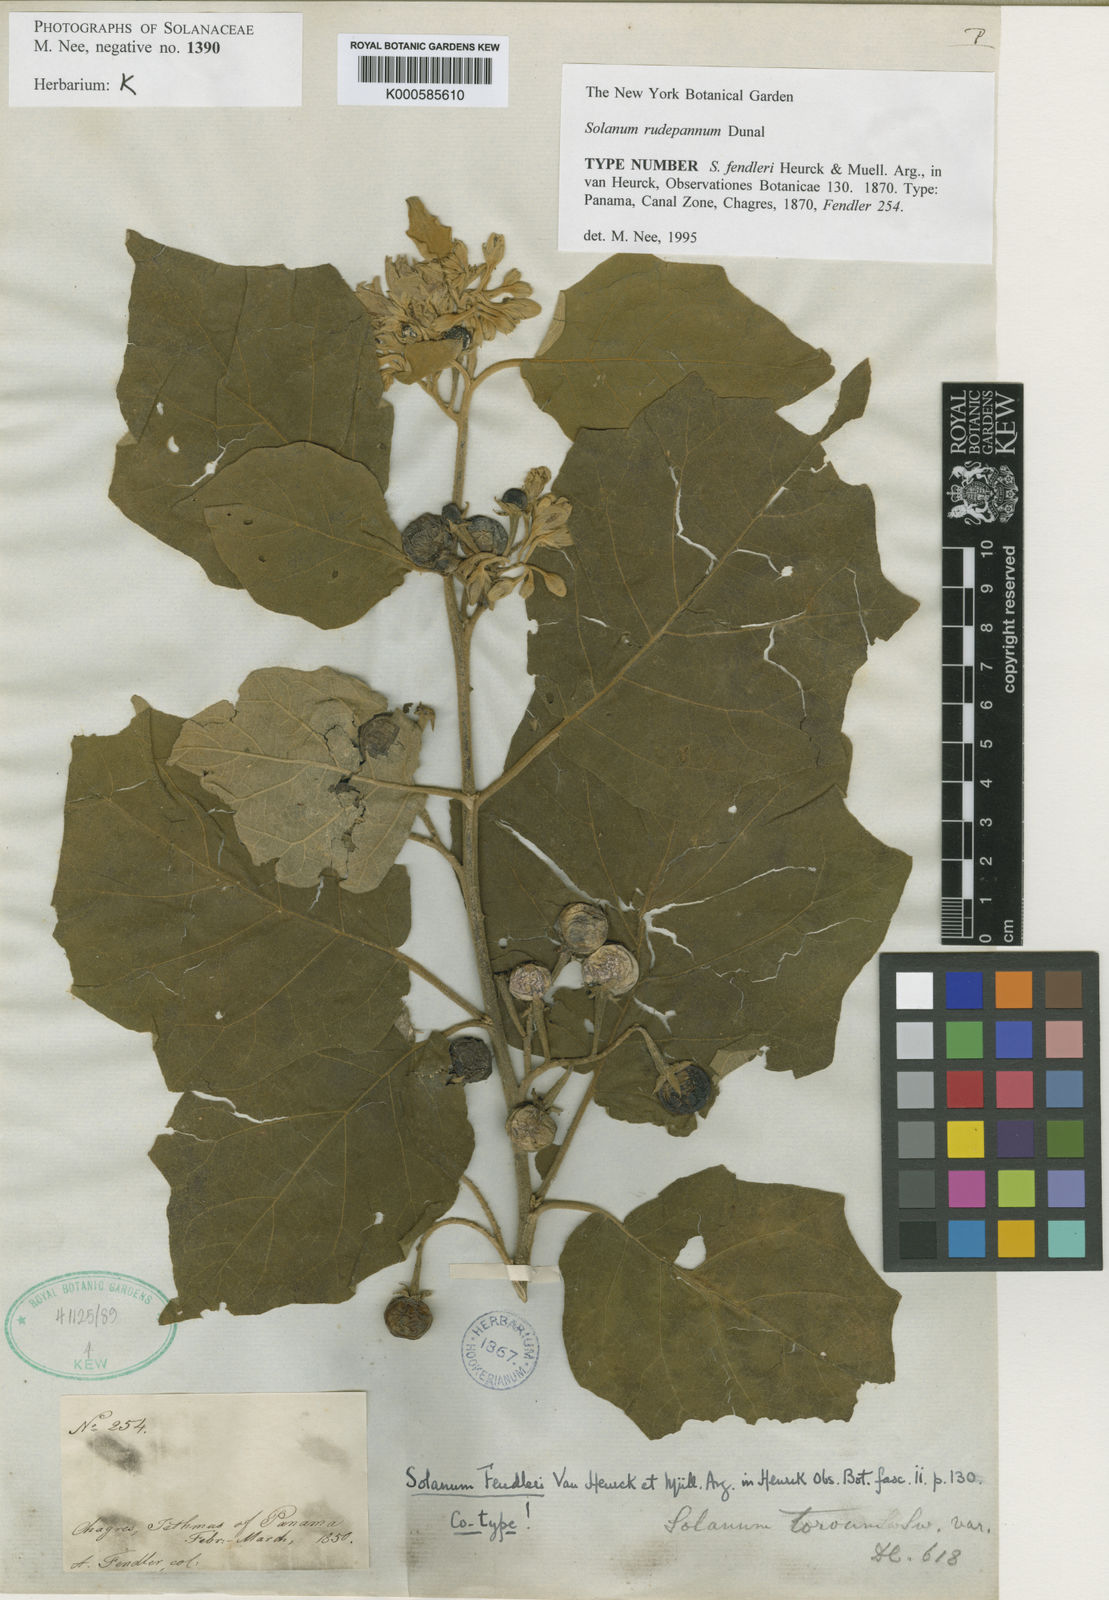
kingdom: Plantae
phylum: Tracheophyta
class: Magnoliopsida
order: Solanales
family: Solanaceae
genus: Solanum
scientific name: Solanum rude-pannum
